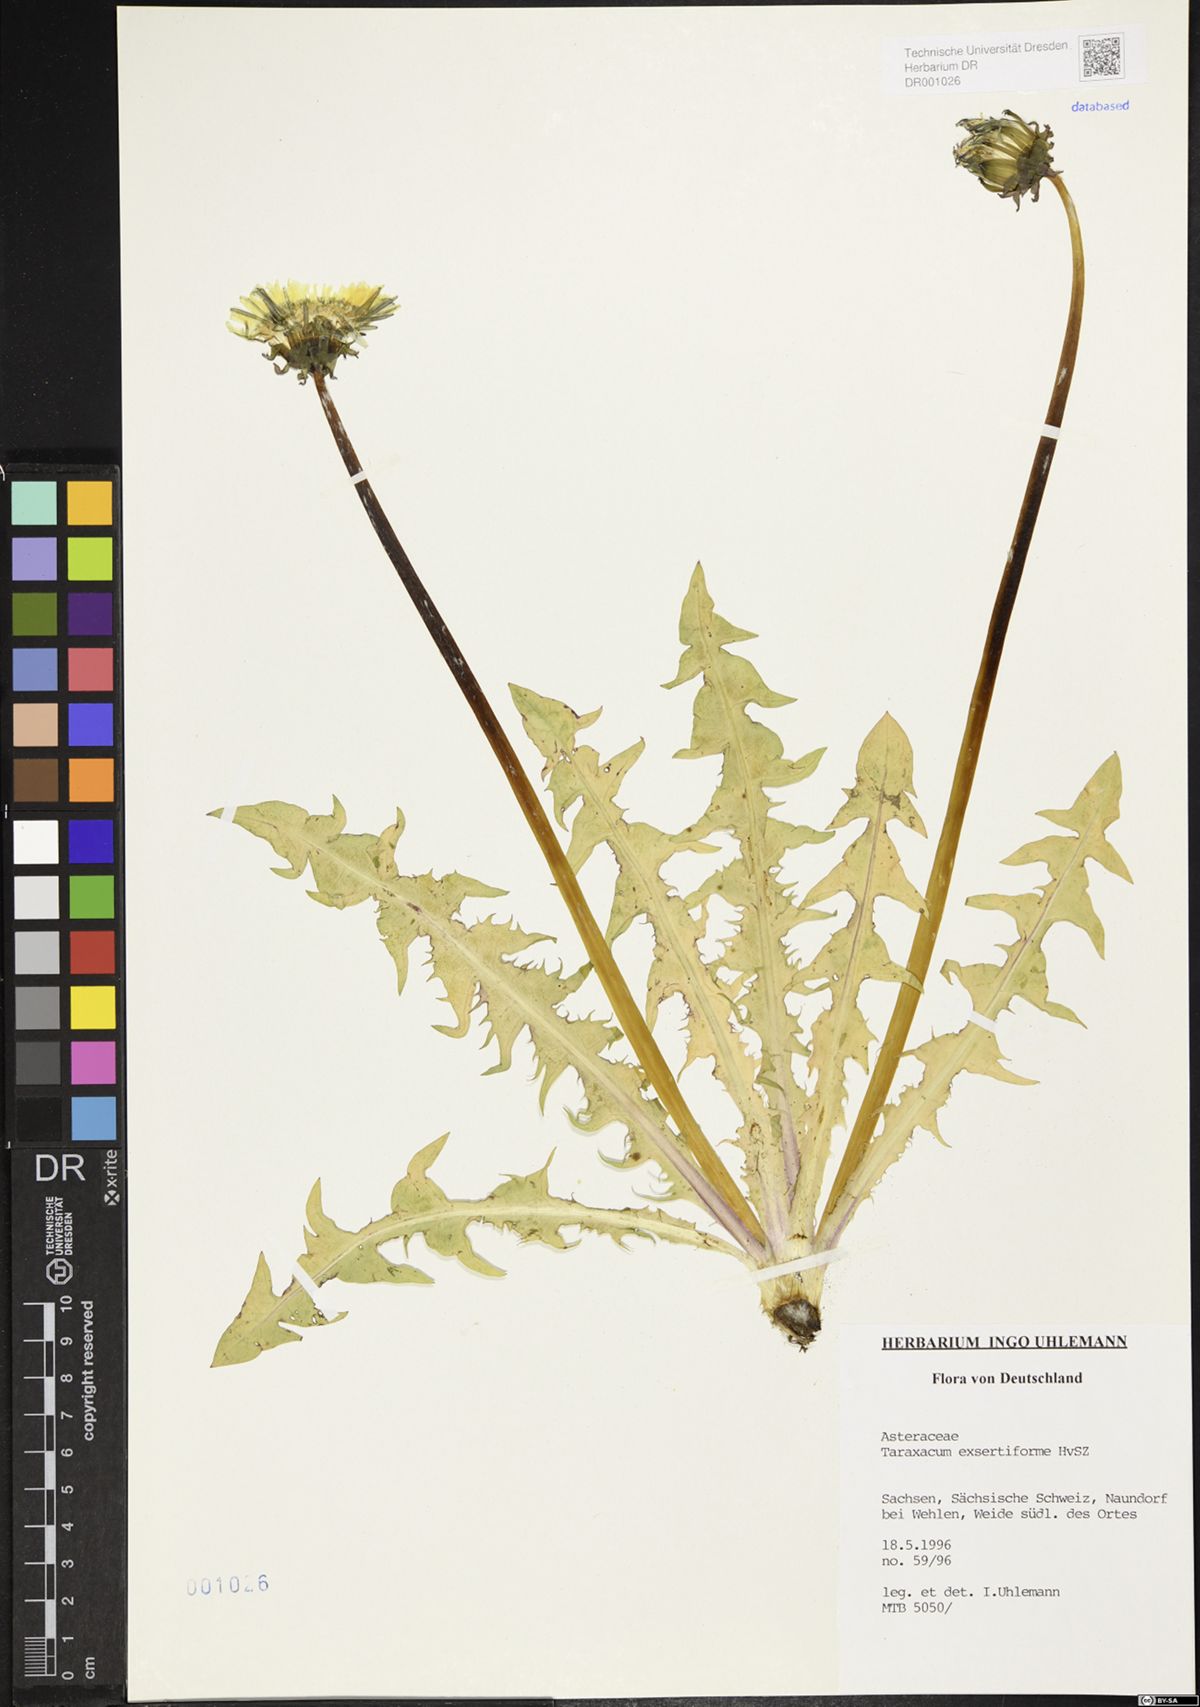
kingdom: Plantae
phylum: Tracheophyta
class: Magnoliopsida
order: Asterales
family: Asteraceae
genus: Taraxacum
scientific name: Taraxacum exsertiforme
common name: Erect-bracted dandelion
